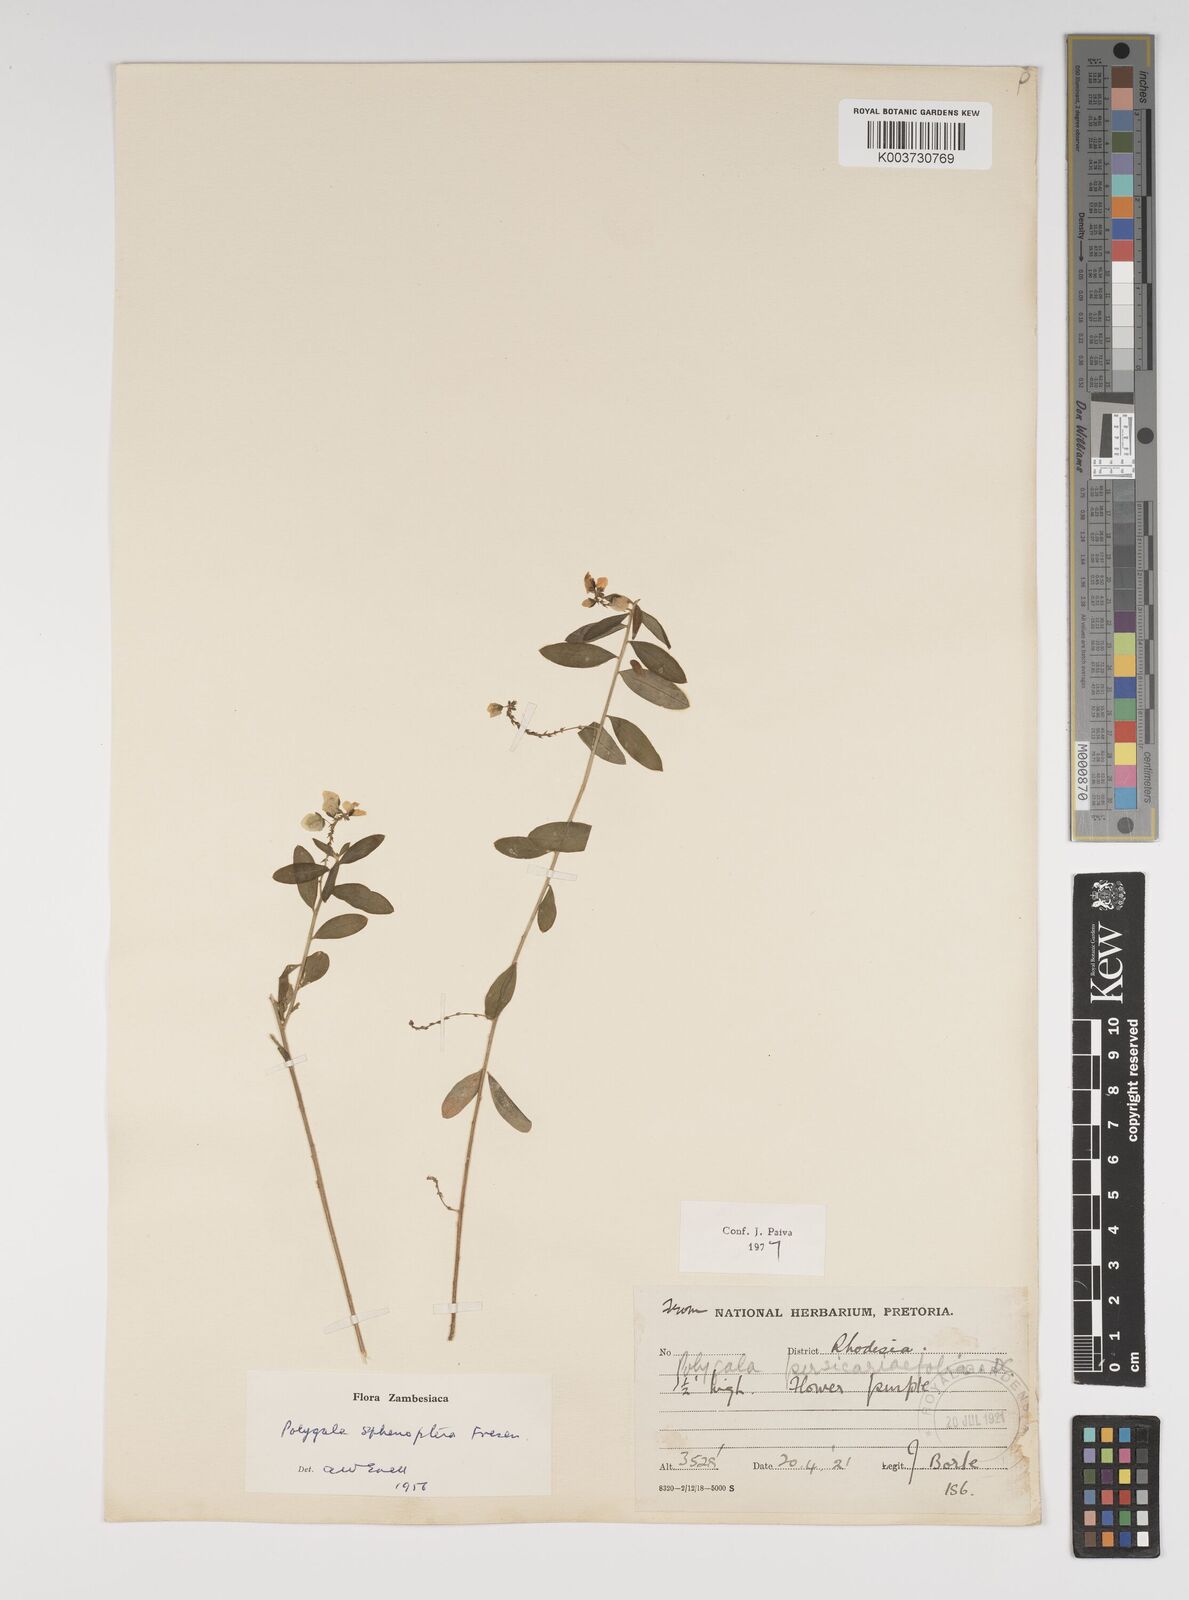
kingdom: Plantae
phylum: Tracheophyta
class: Magnoliopsida
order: Fabales
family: Polygalaceae
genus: Polygala
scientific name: Polygala sphenoptera
